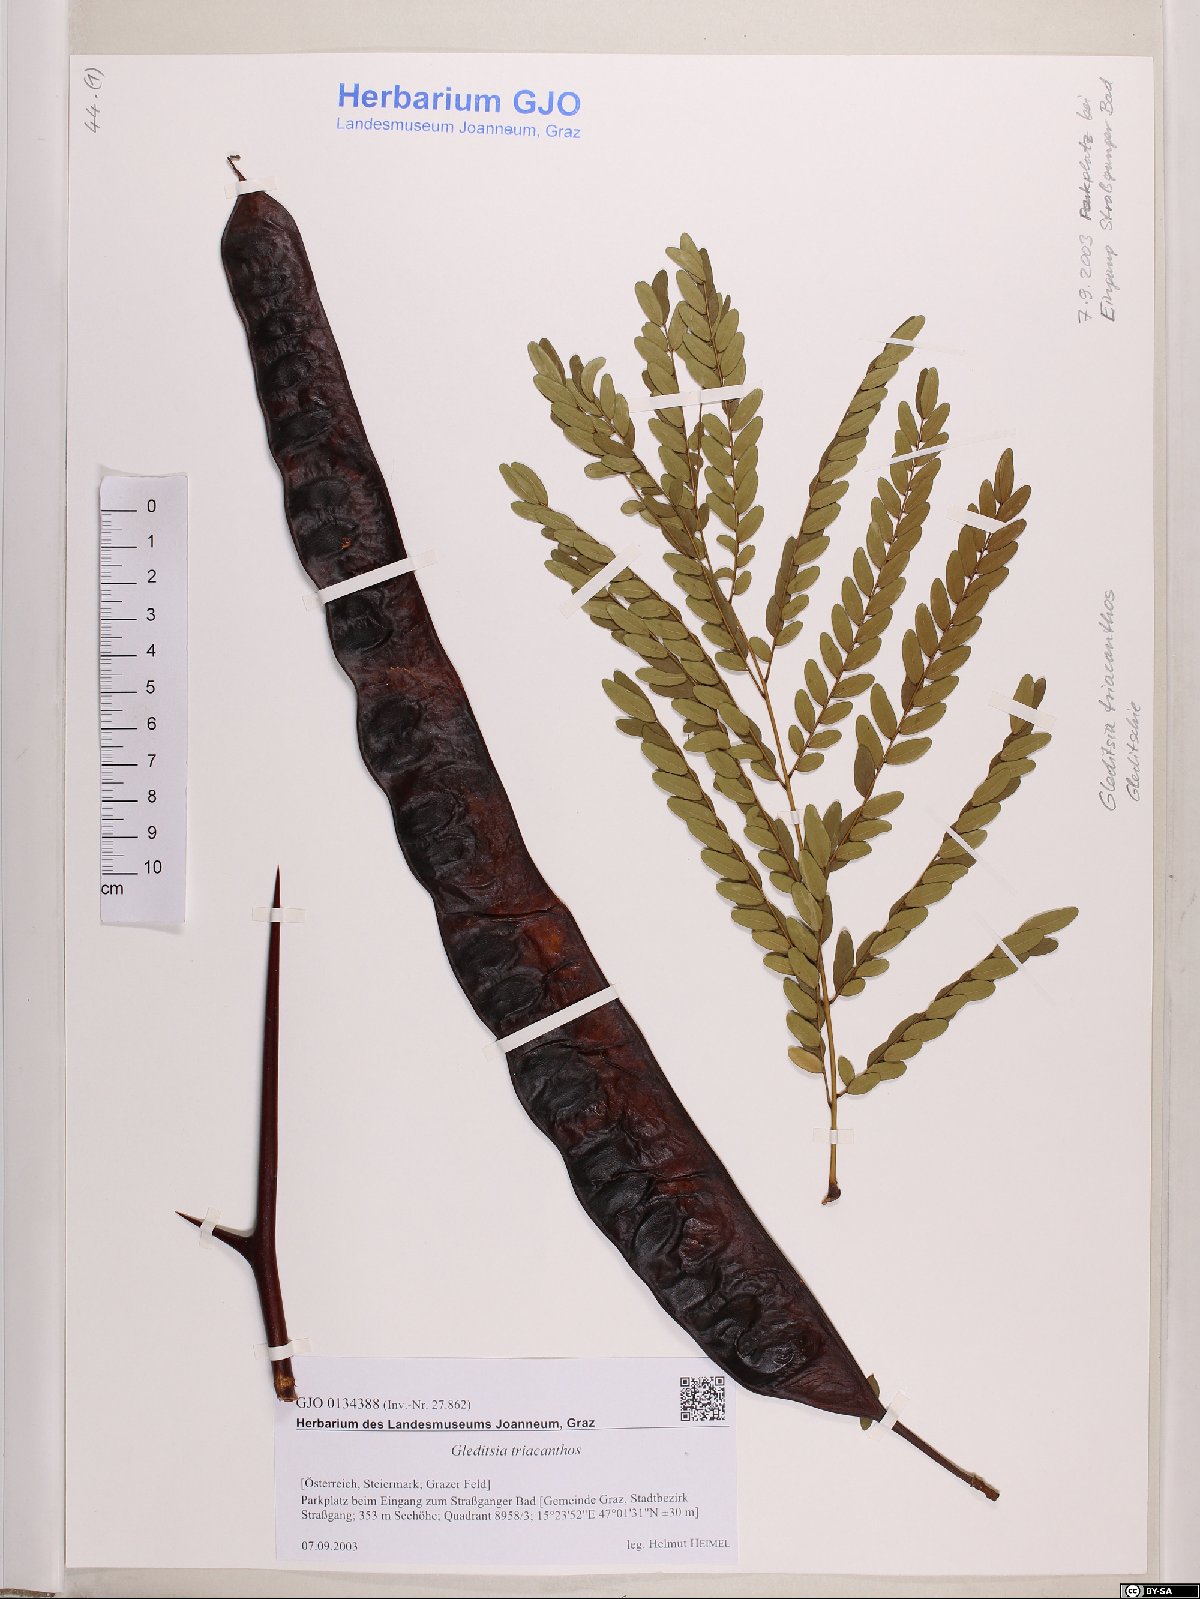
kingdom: Plantae
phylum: Tracheophyta
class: Magnoliopsida
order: Fabales
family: Fabaceae
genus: Gleditsia
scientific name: Gleditsia triacanthos
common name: Common honeylocust
